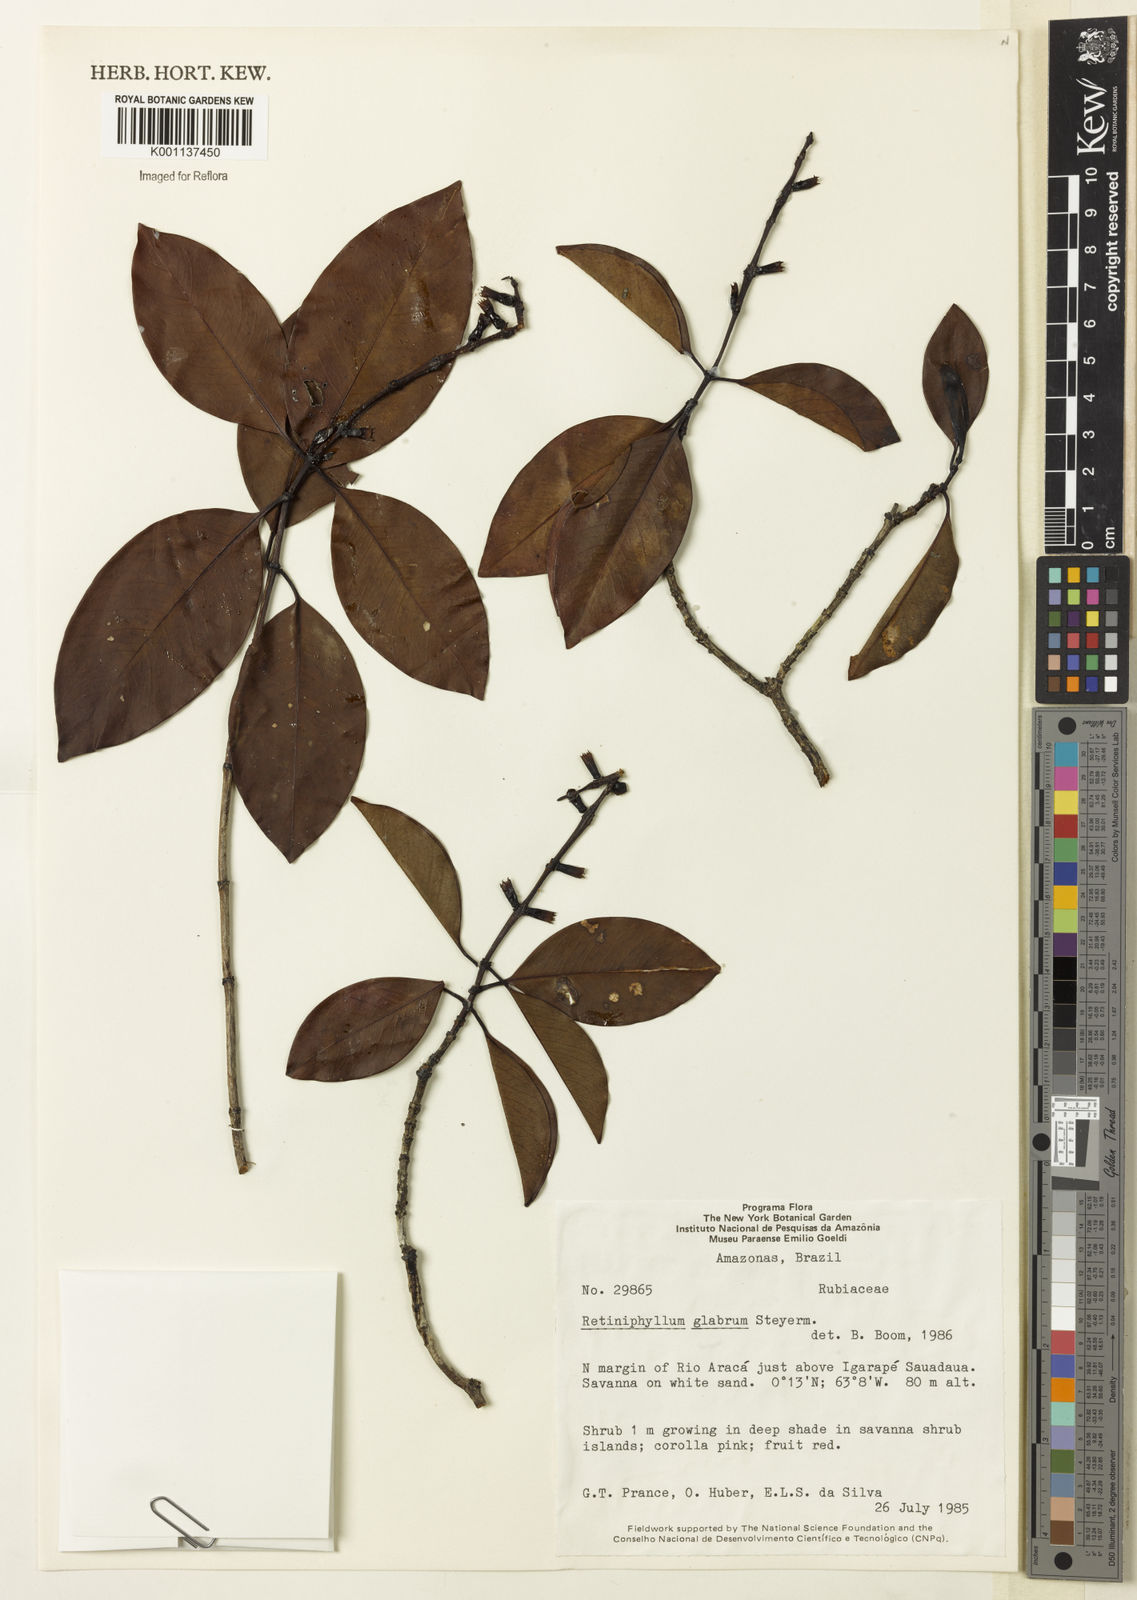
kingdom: Plantae
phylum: Tracheophyta
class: Magnoliopsida
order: Gentianales
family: Rubiaceae
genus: Retiniphyllum
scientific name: Retiniphyllum glabrum
